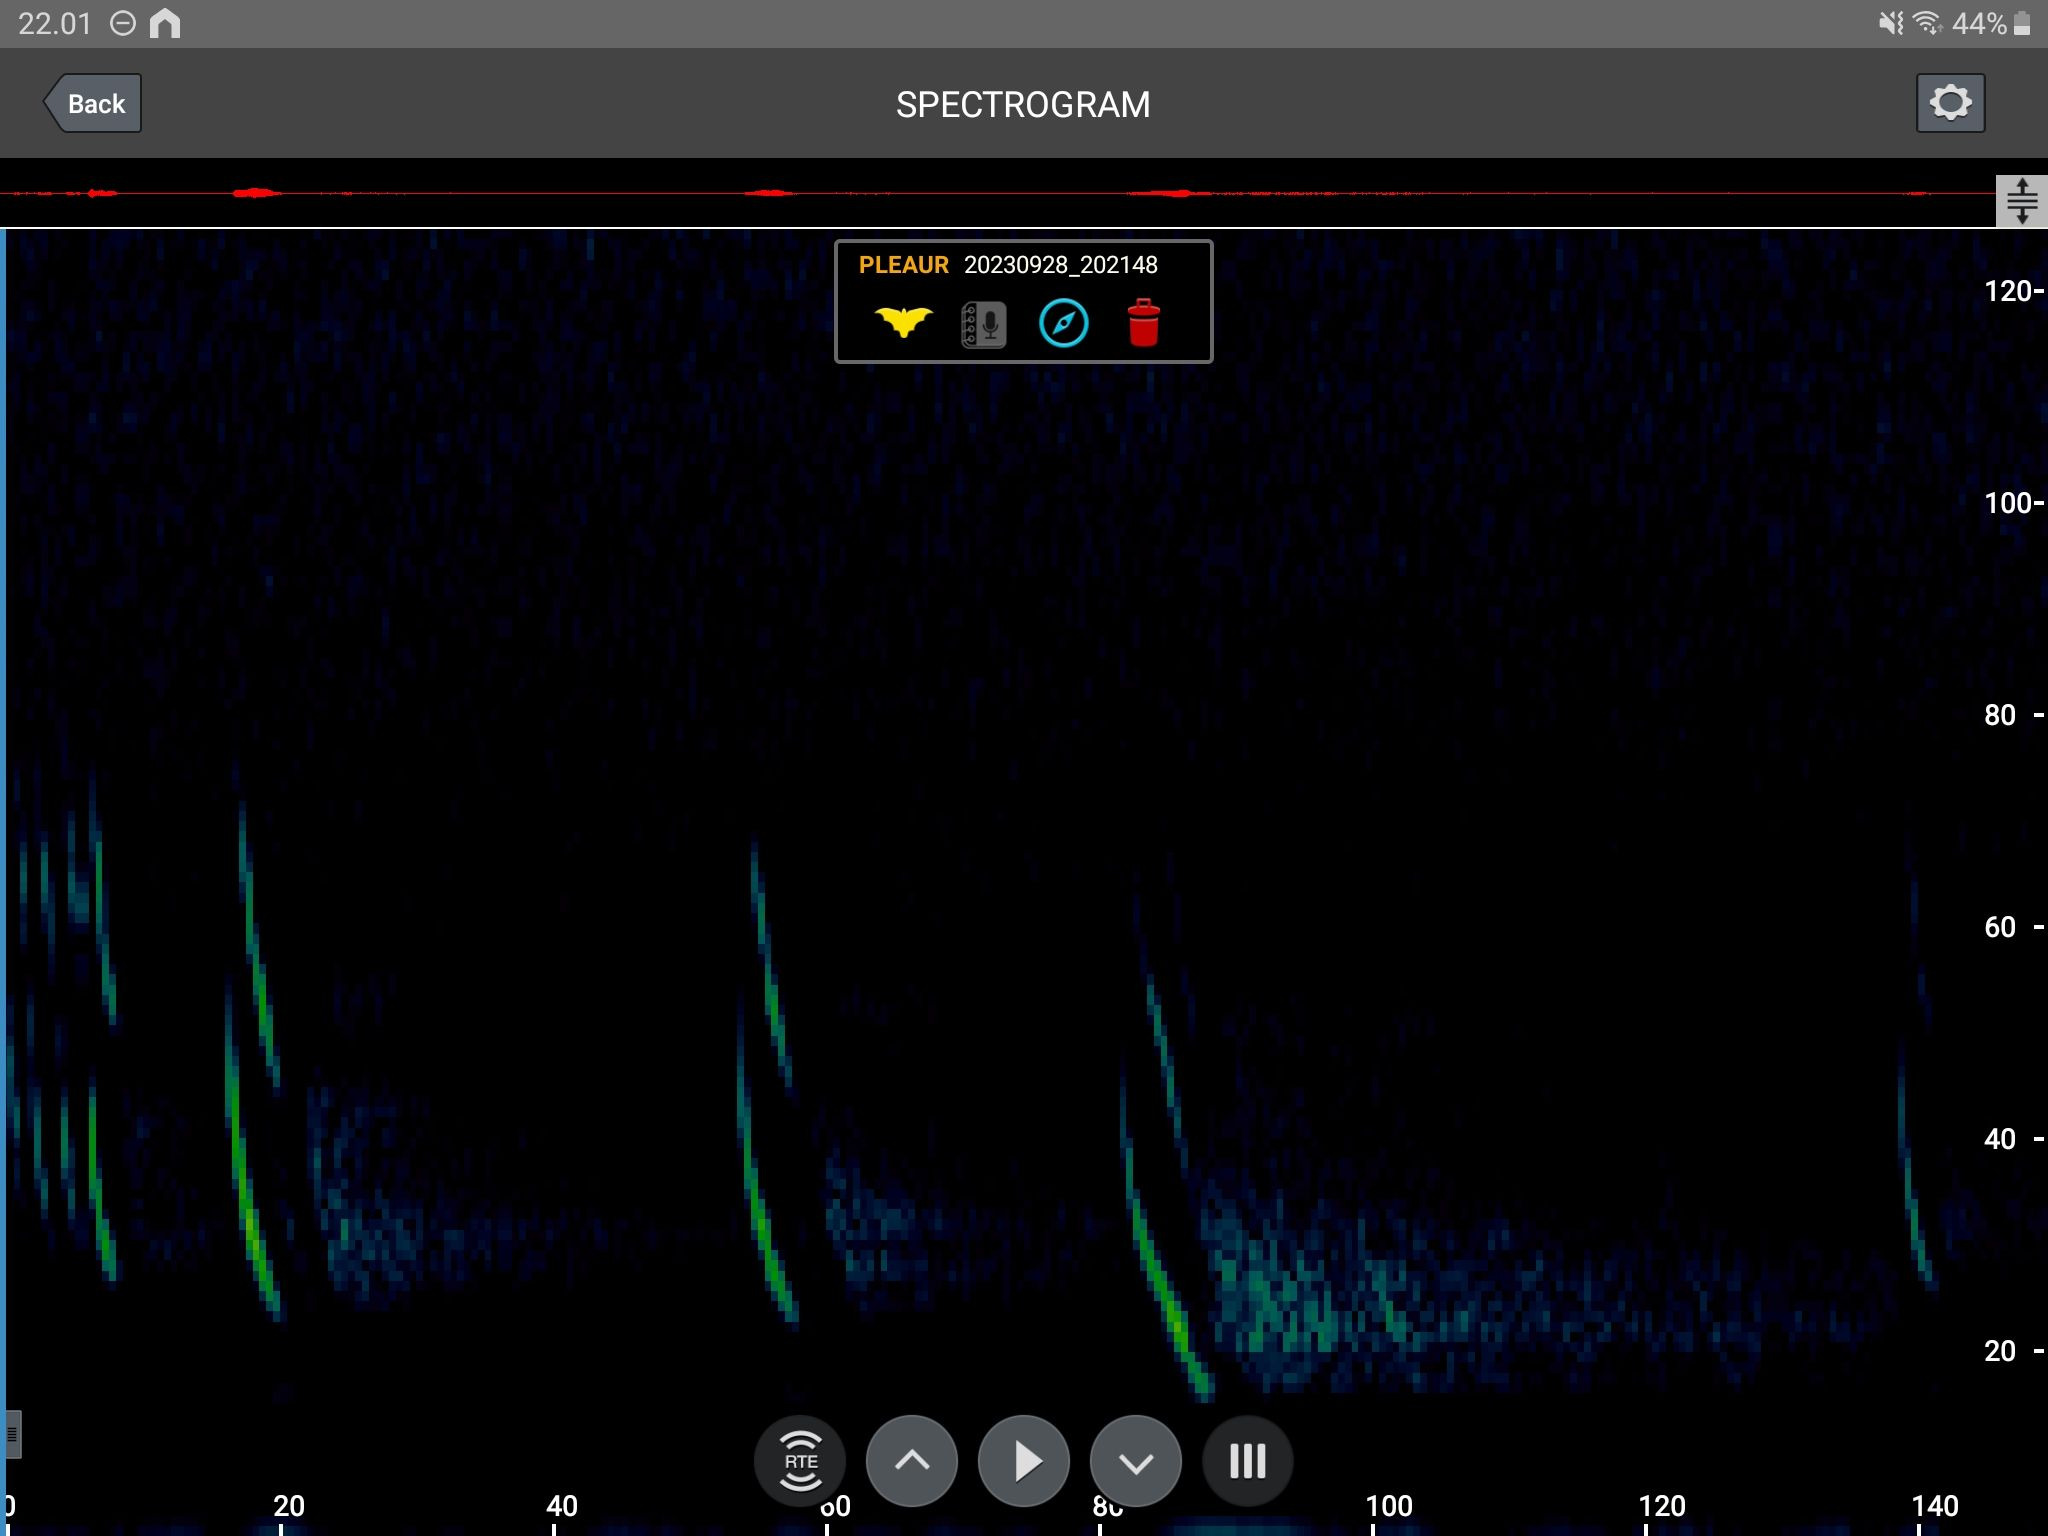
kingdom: Animalia
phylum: Chordata
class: Mammalia
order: Chiroptera
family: Vespertilionidae
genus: Plecotus
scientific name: Plecotus auritus
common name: Brun langøre
